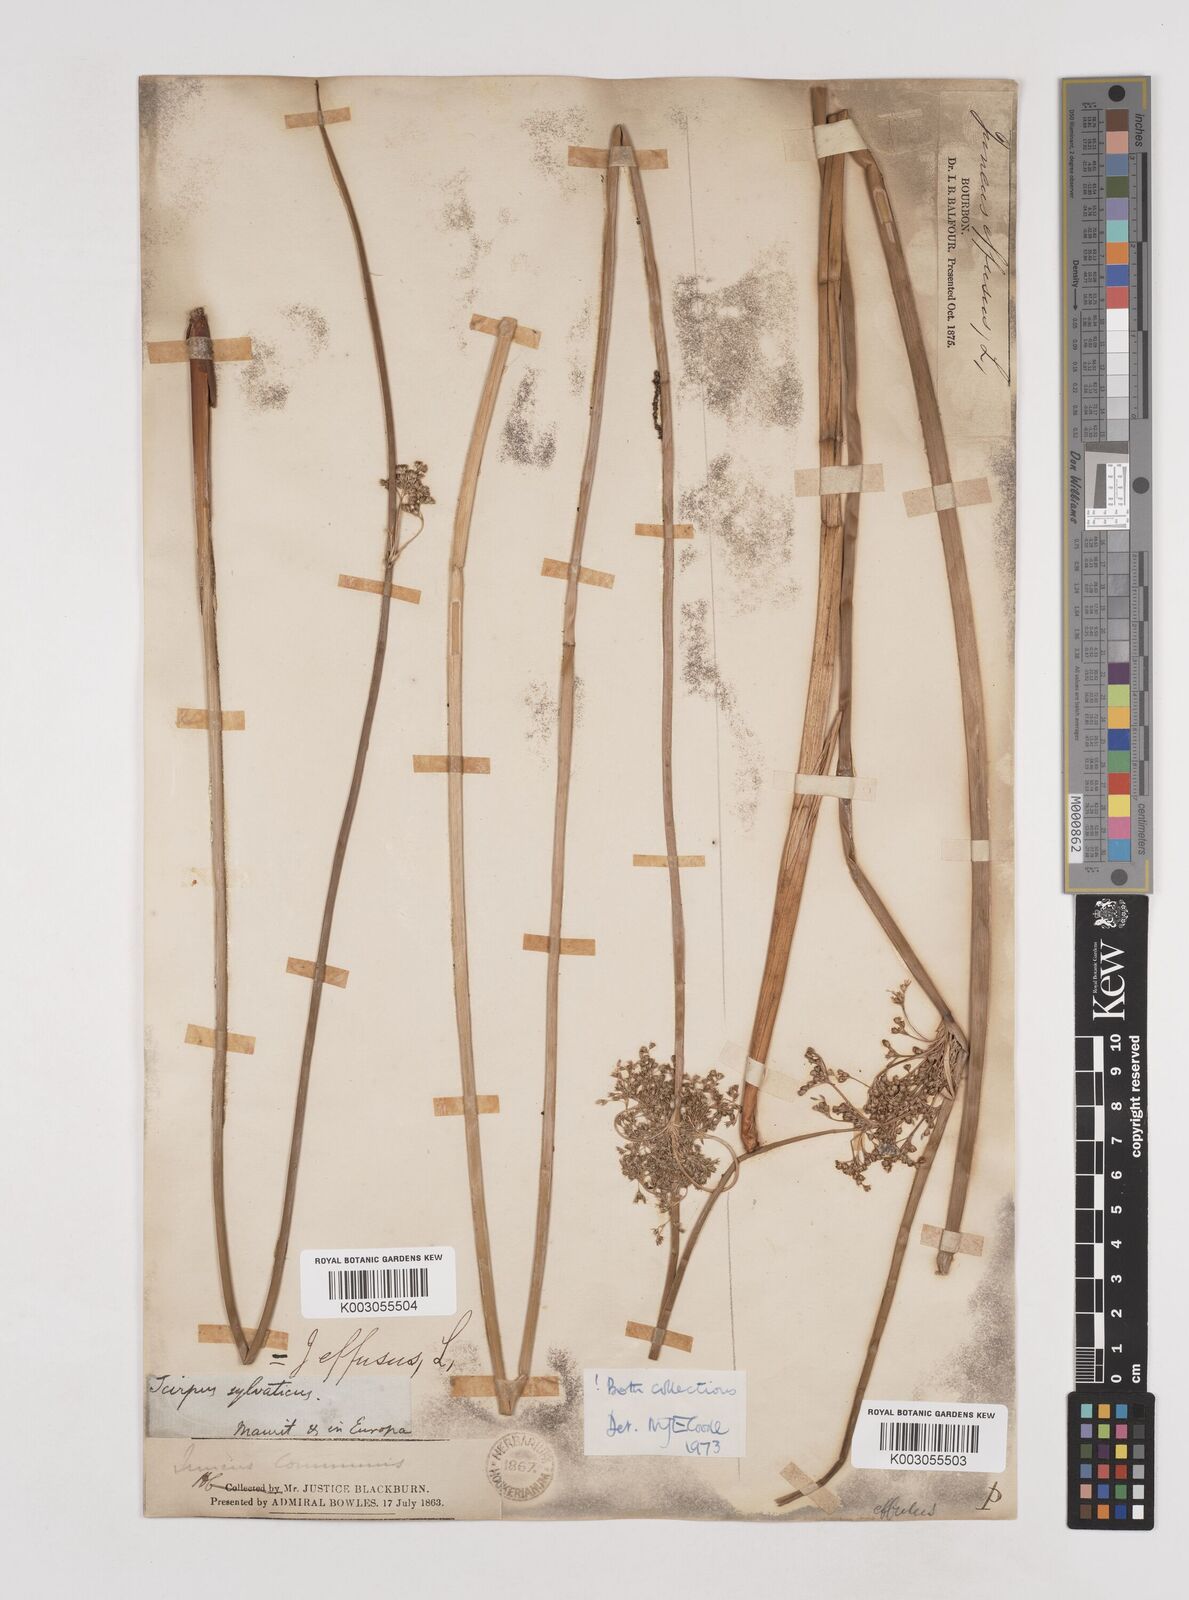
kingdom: Plantae
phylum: Tracheophyta
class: Liliopsida
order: Poales
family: Juncaceae
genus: Juncus
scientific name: Juncus effusus
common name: Soft rush
